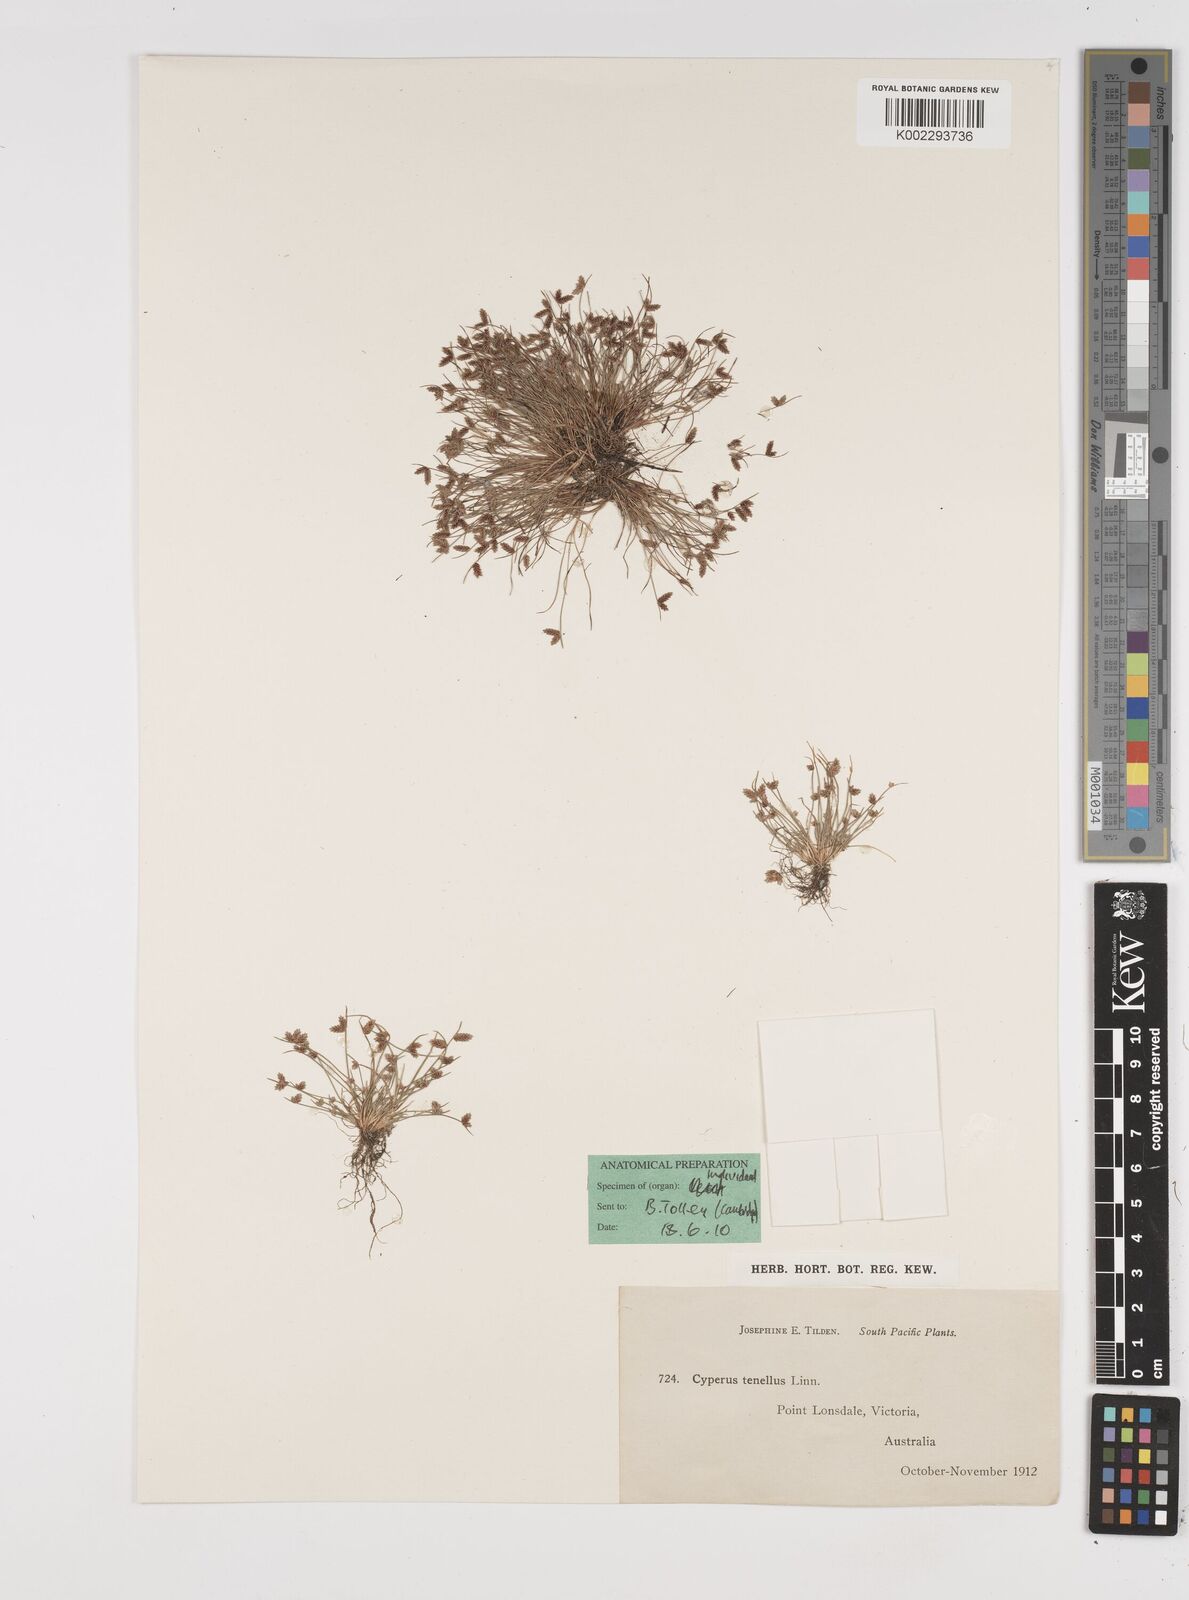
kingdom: Plantae
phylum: Tracheophyta
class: Liliopsida
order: Poales
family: Cyperaceae
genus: Isolepis
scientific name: Isolepis levynsiana
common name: Sedge
